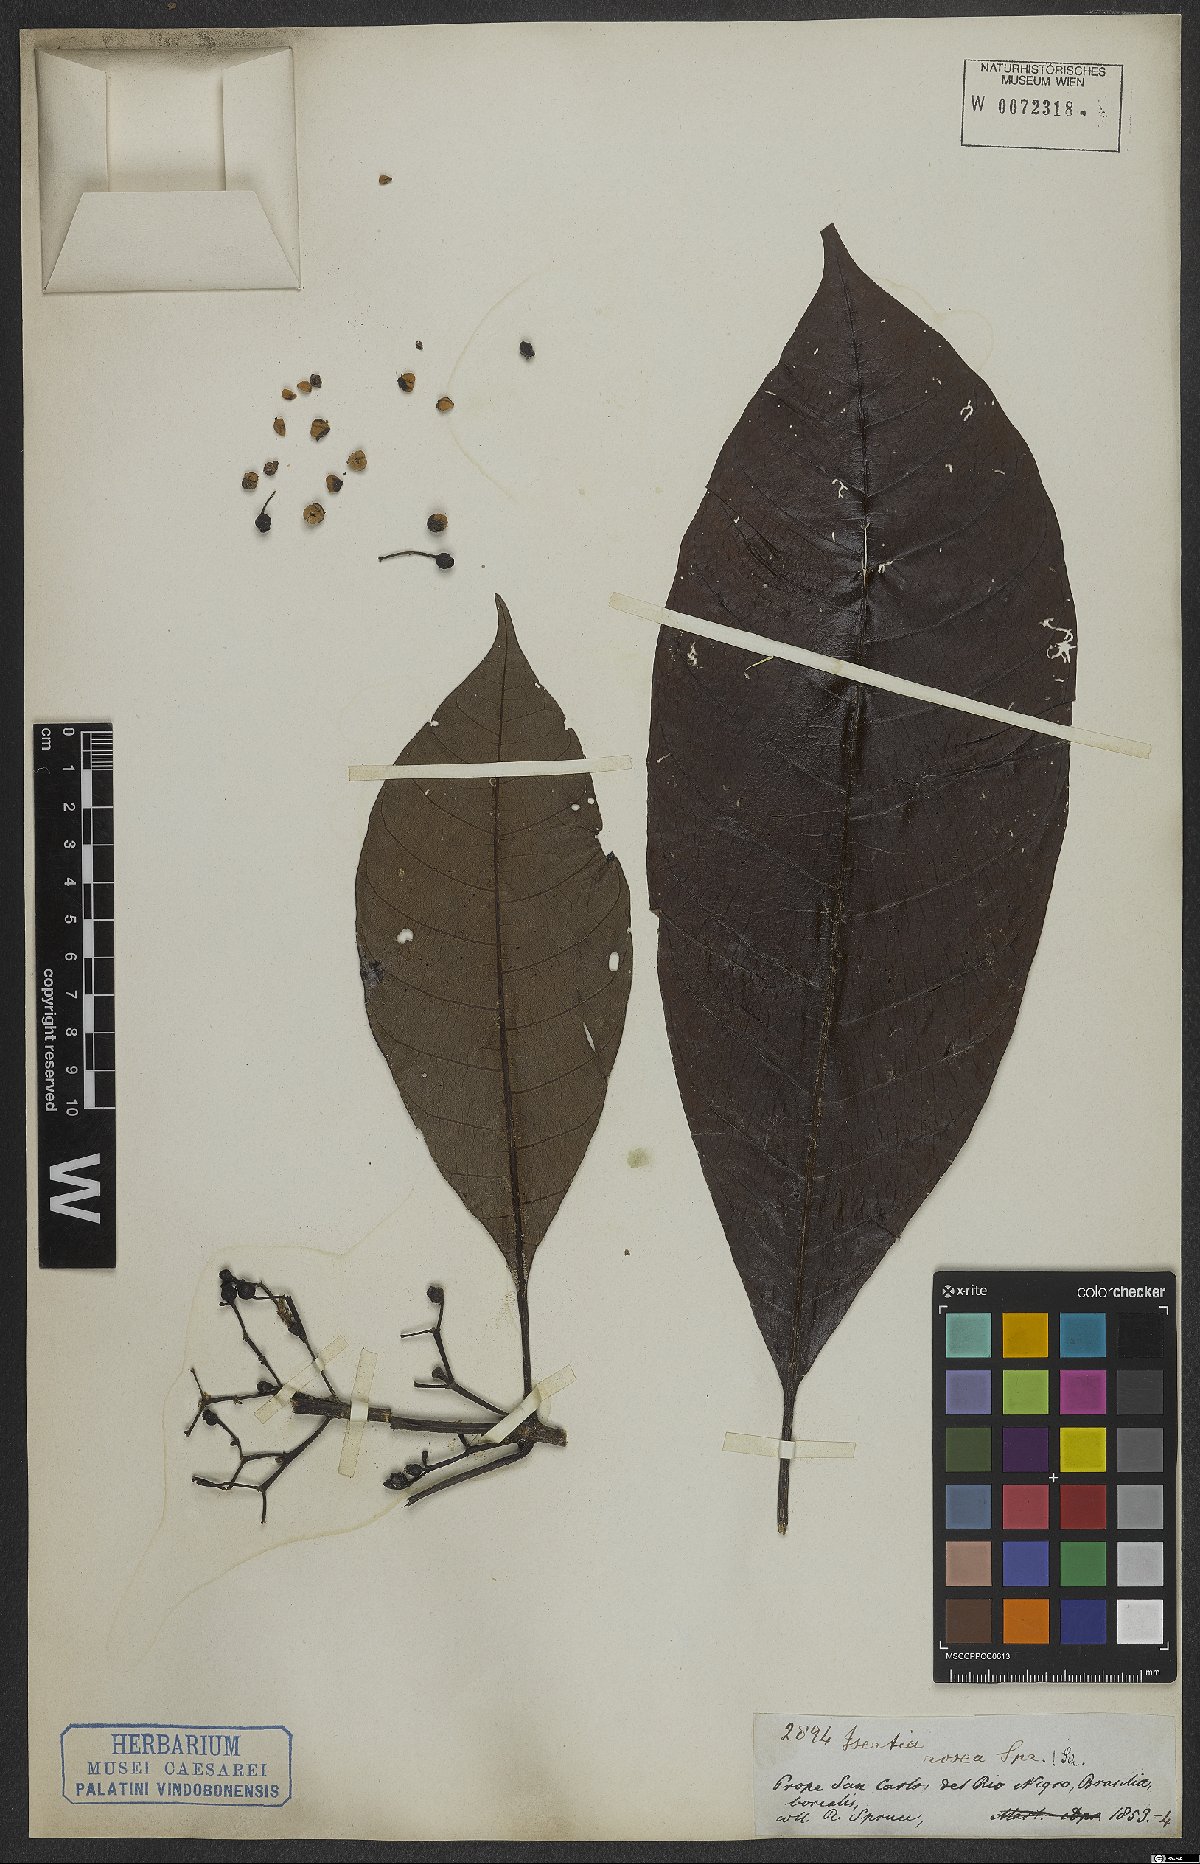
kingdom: Plantae
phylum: Tracheophyta
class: Magnoliopsida
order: Gentianales
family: Rubiaceae
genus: Isertia
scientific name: Isertia rosea
